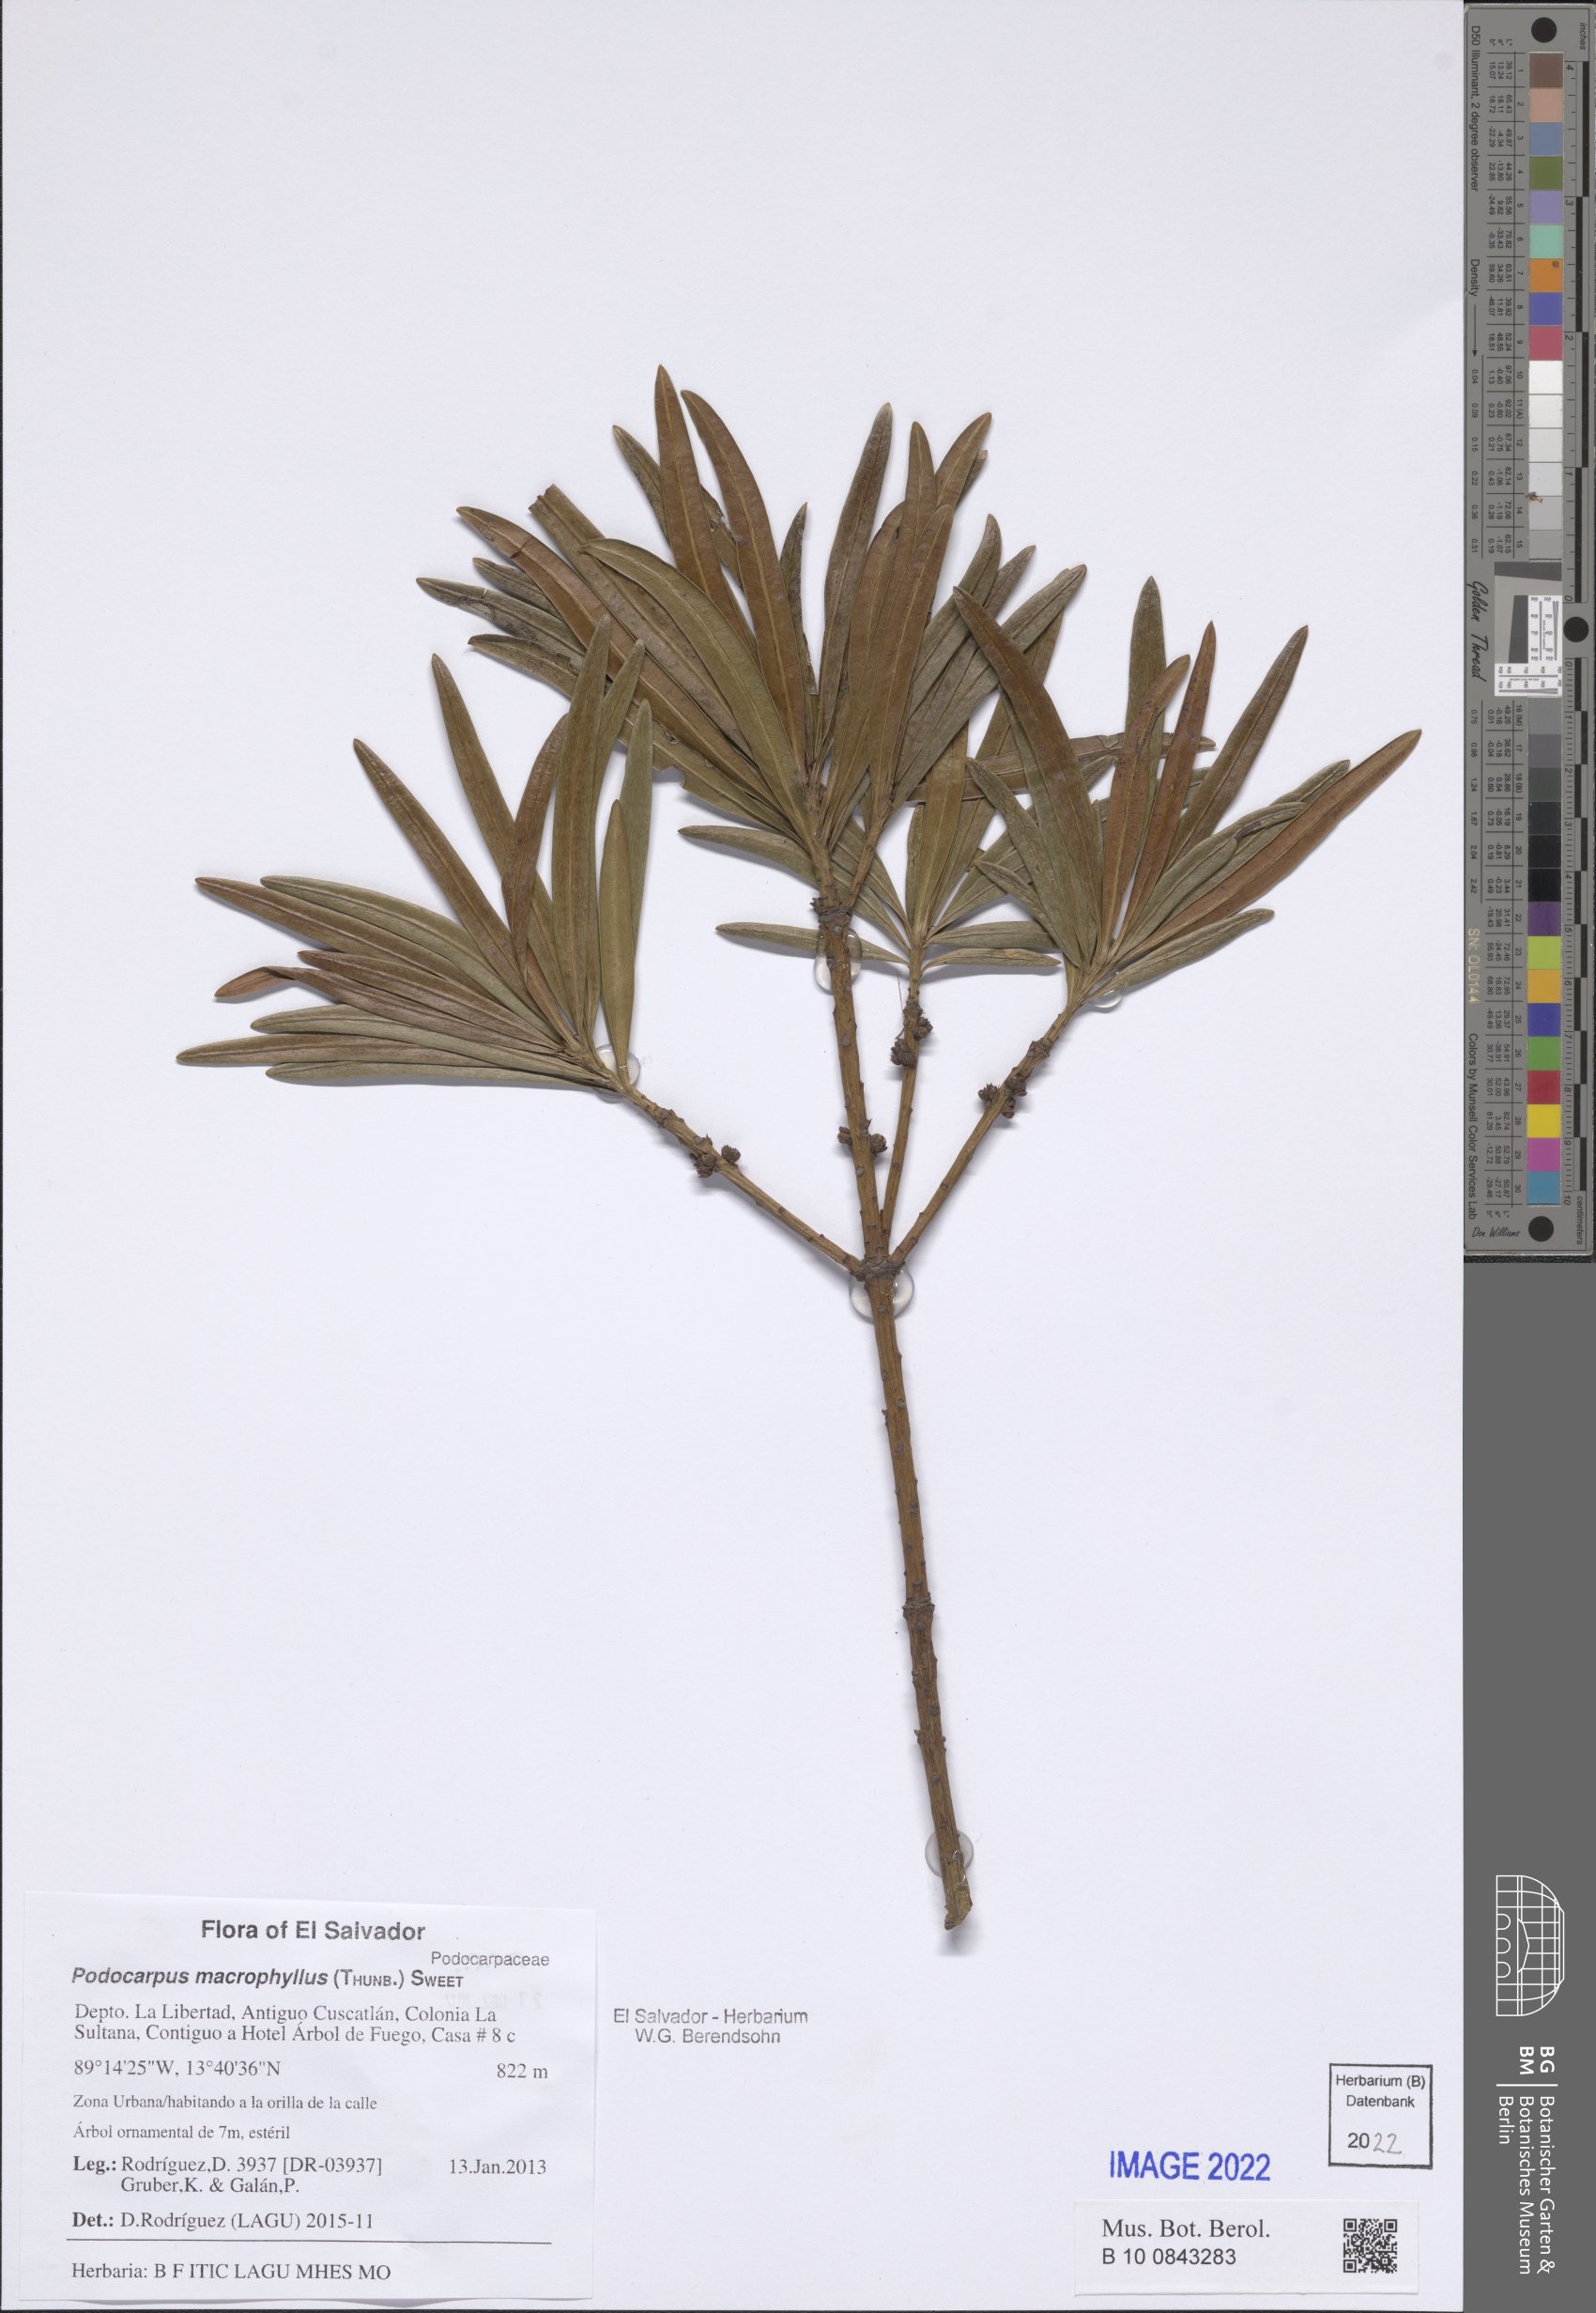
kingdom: Plantae
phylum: Tracheophyta
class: Pinopsida
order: Pinales
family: Podocarpaceae
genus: Podocarpus
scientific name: Podocarpus macrophyllus
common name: Japanese yew
